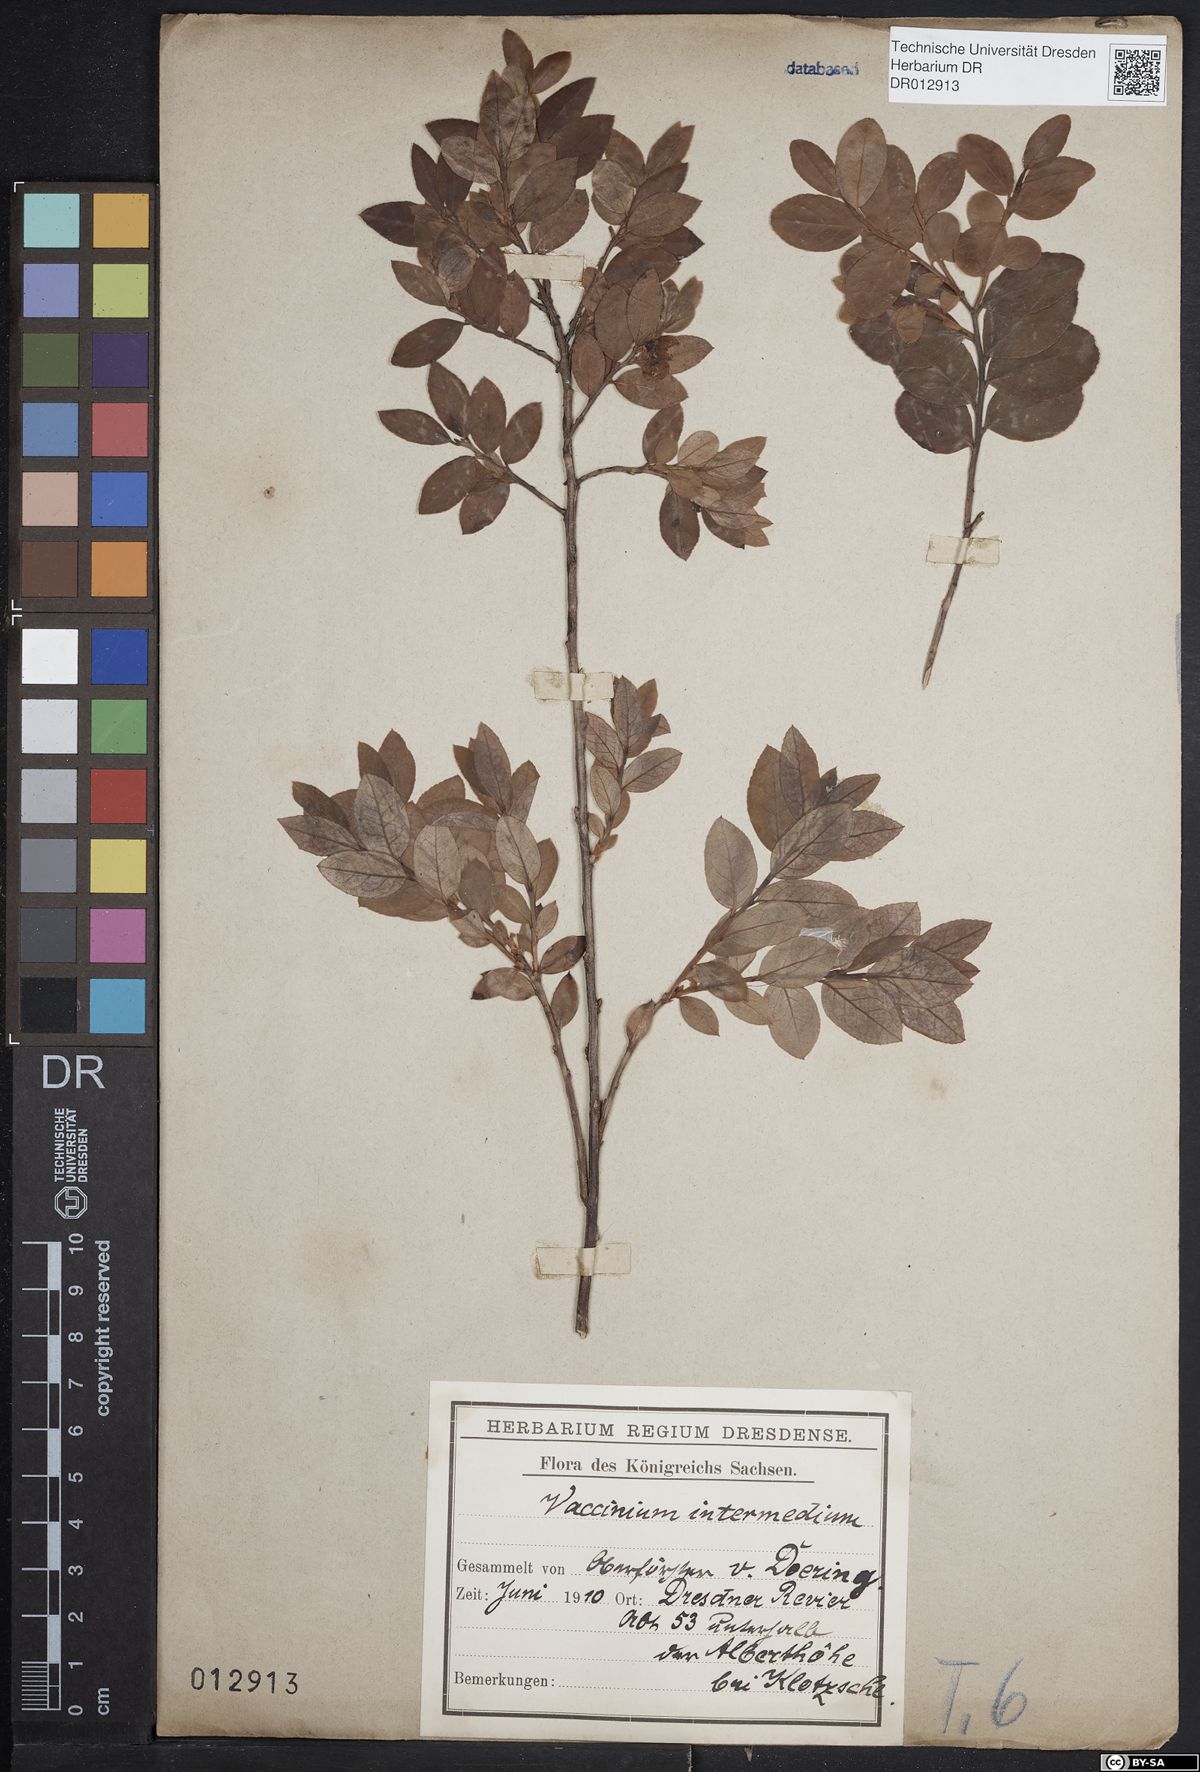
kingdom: Plantae
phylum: Tracheophyta
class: Magnoliopsida
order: Ericales
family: Ericaceae
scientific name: Ericaceae
